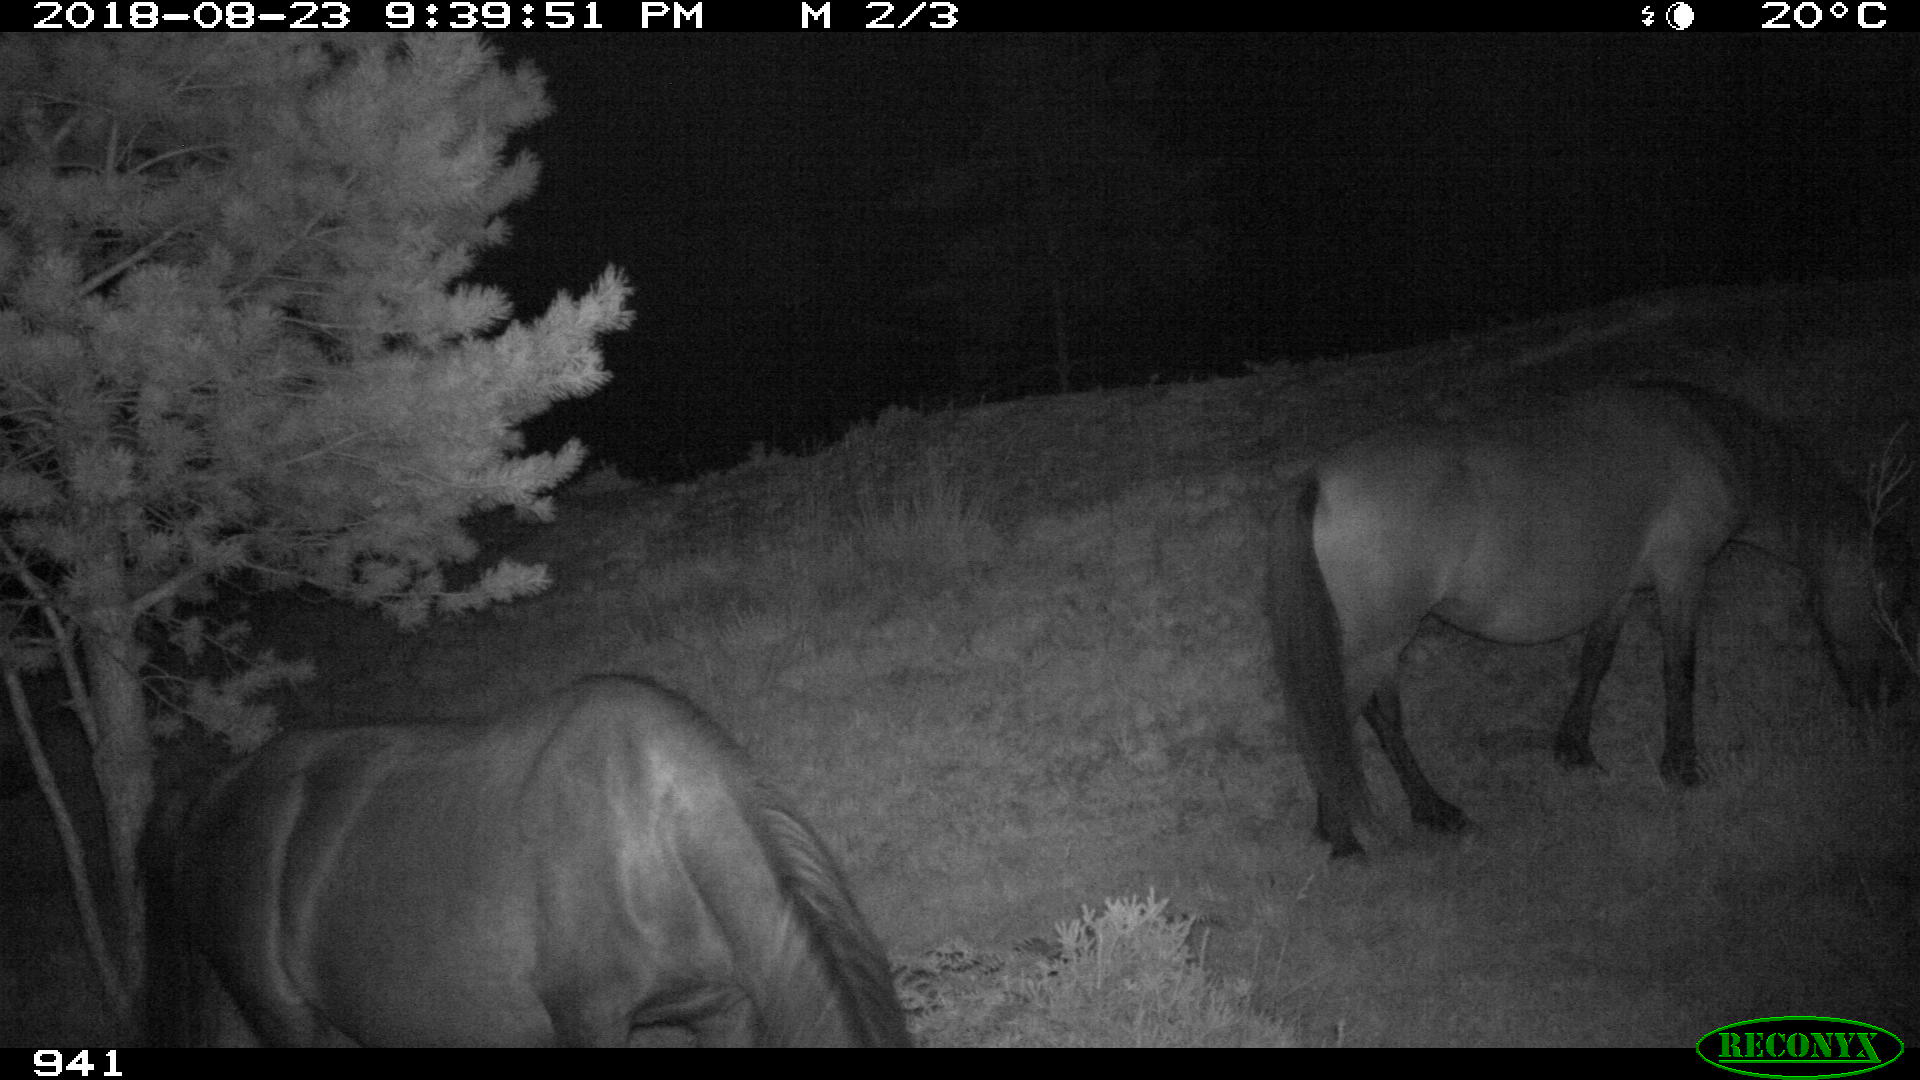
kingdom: Animalia
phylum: Chordata
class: Mammalia
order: Perissodactyla
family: Equidae
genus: Equus
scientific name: Equus caballus
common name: Horse
